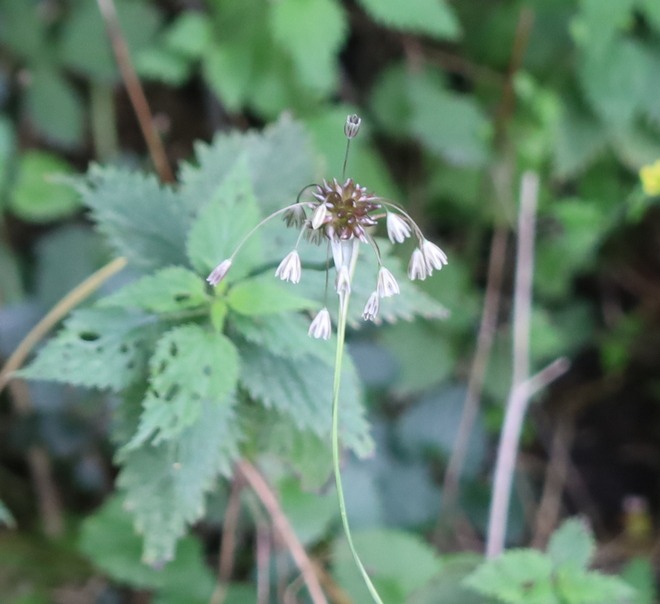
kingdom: Plantae
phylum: Tracheophyta
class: Liliopsida
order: Asparagales
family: Amaryllidaceae
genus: Allium
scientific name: Allium oleraceum
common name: Vild løg
